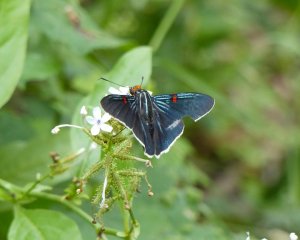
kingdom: Animalia
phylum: Arthropoda
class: Insecta
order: Lepidoptera
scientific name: Lepidoptera
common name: Butterflies
